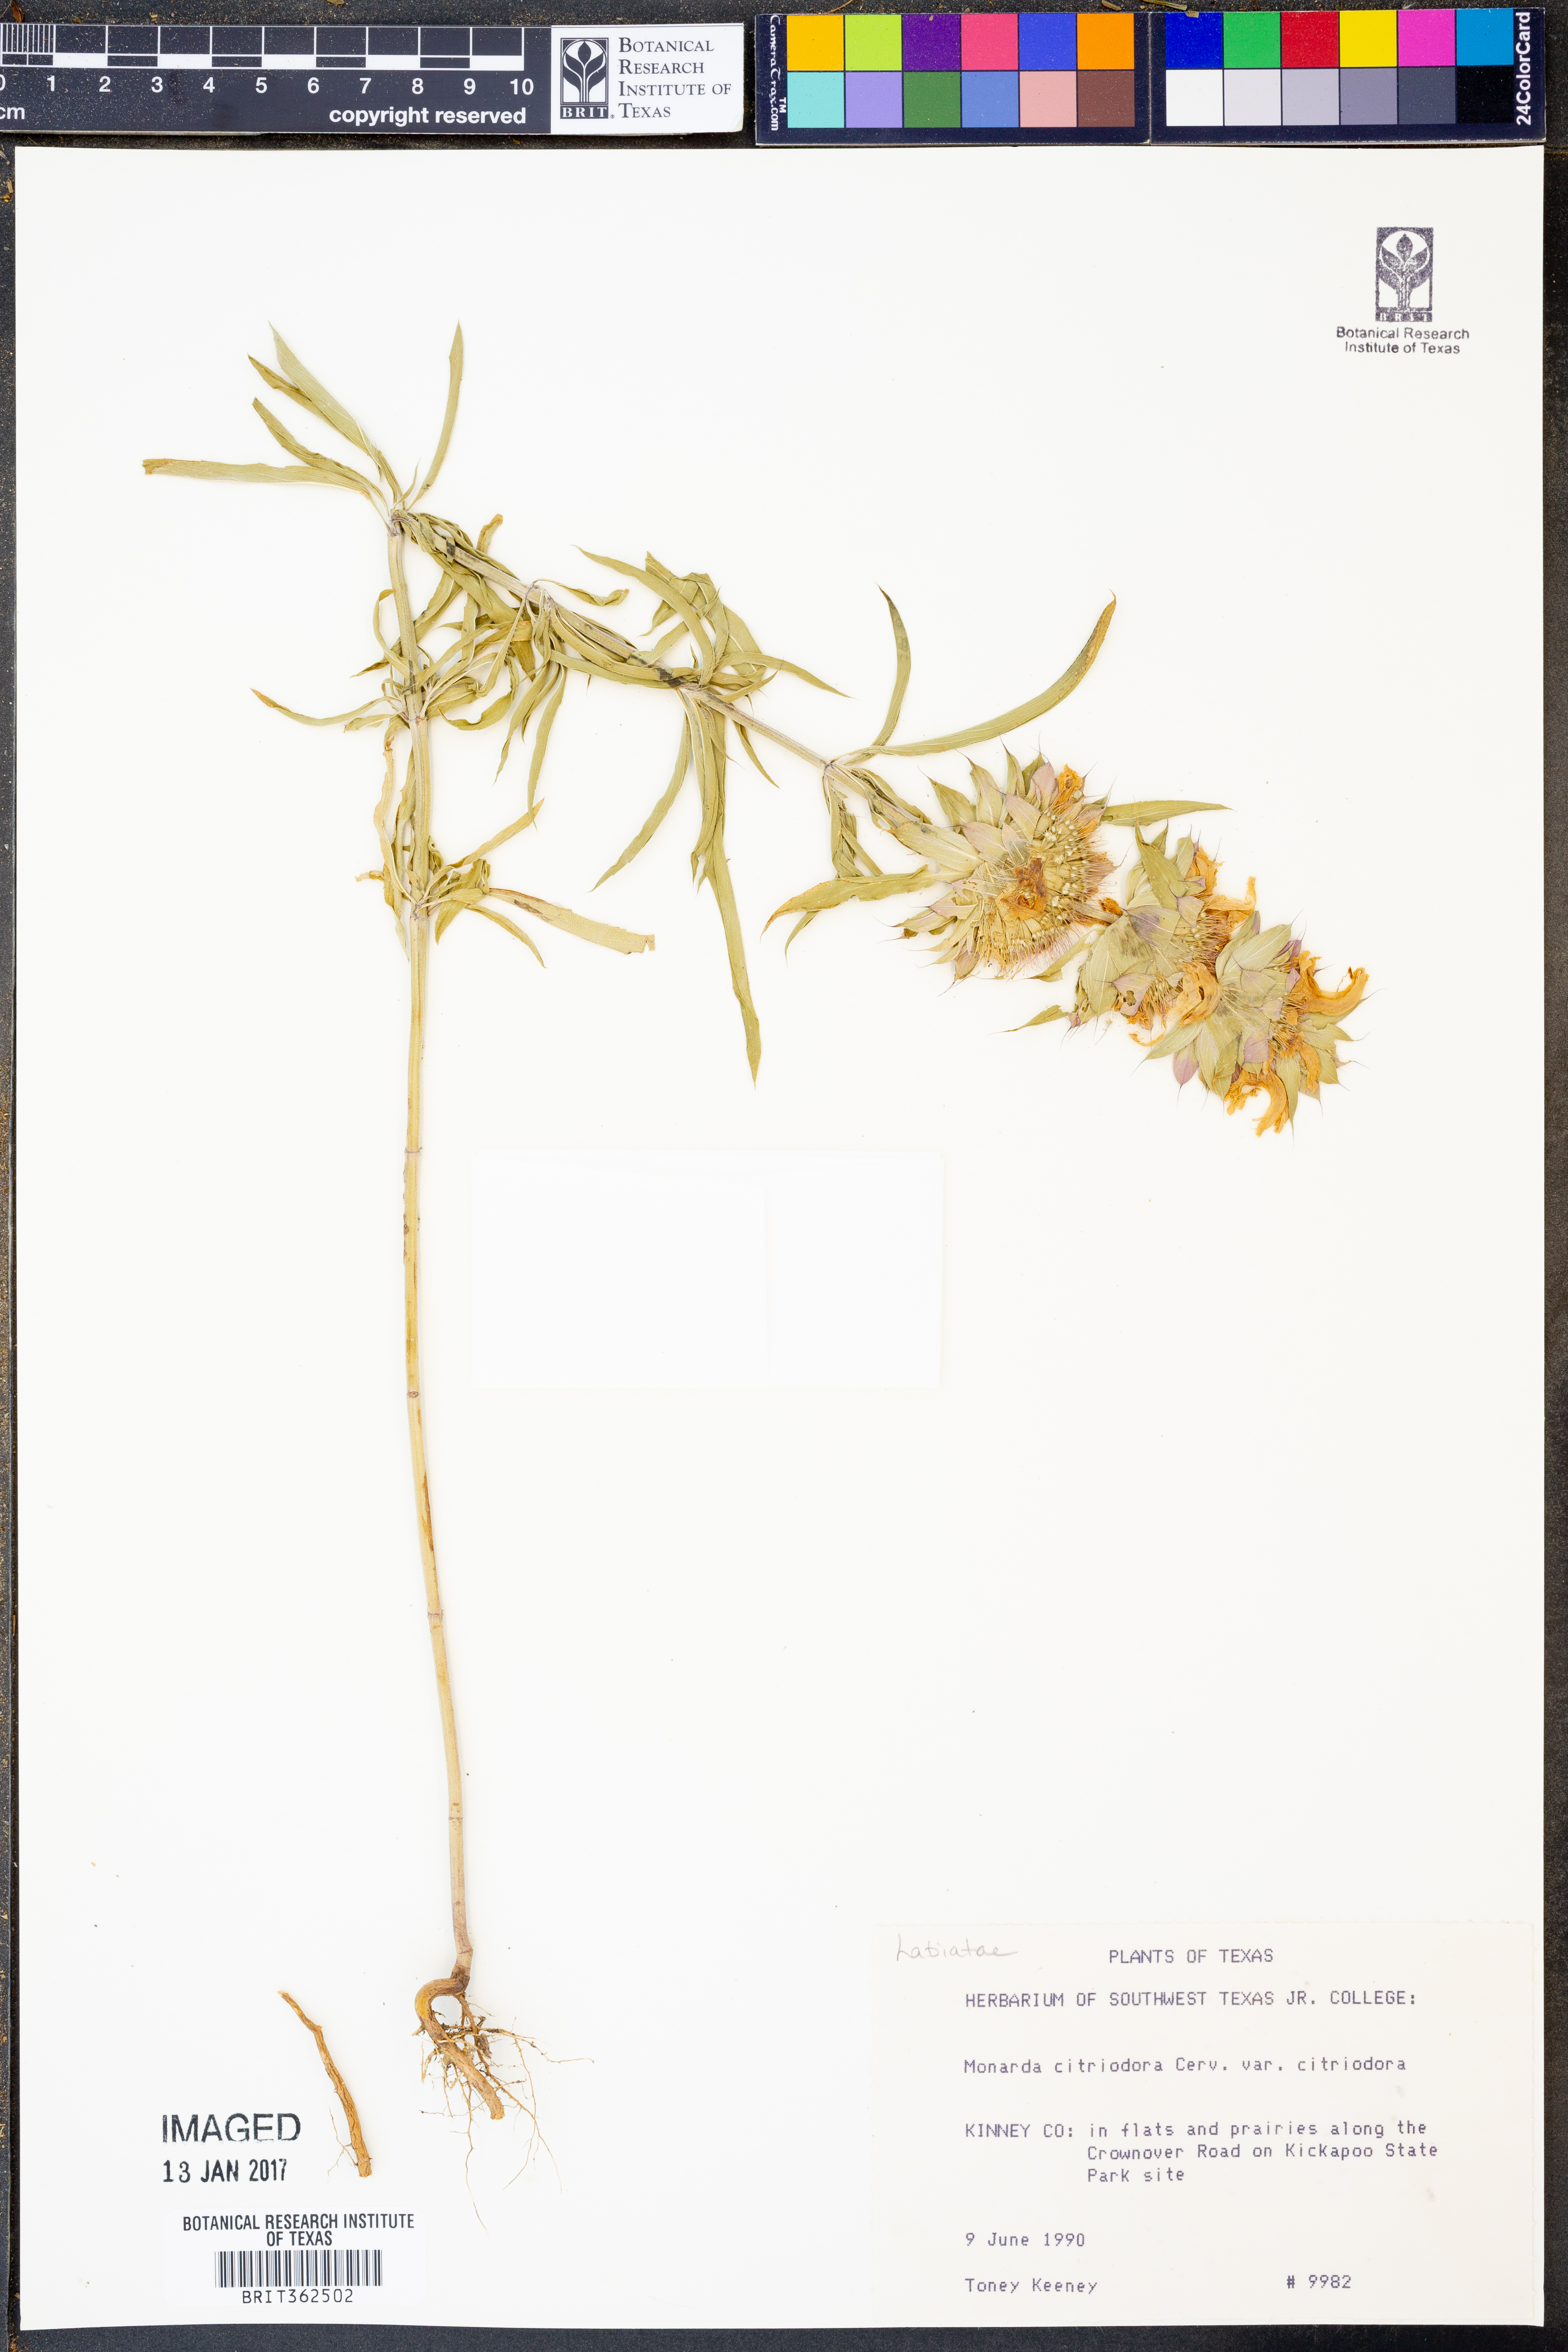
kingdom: Plantae
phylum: Tracheophyta
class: Magnoliopsida
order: Lamiales
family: Lamiaceae
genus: Monarda
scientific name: Monarda citriodora
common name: Lemon beebalm
